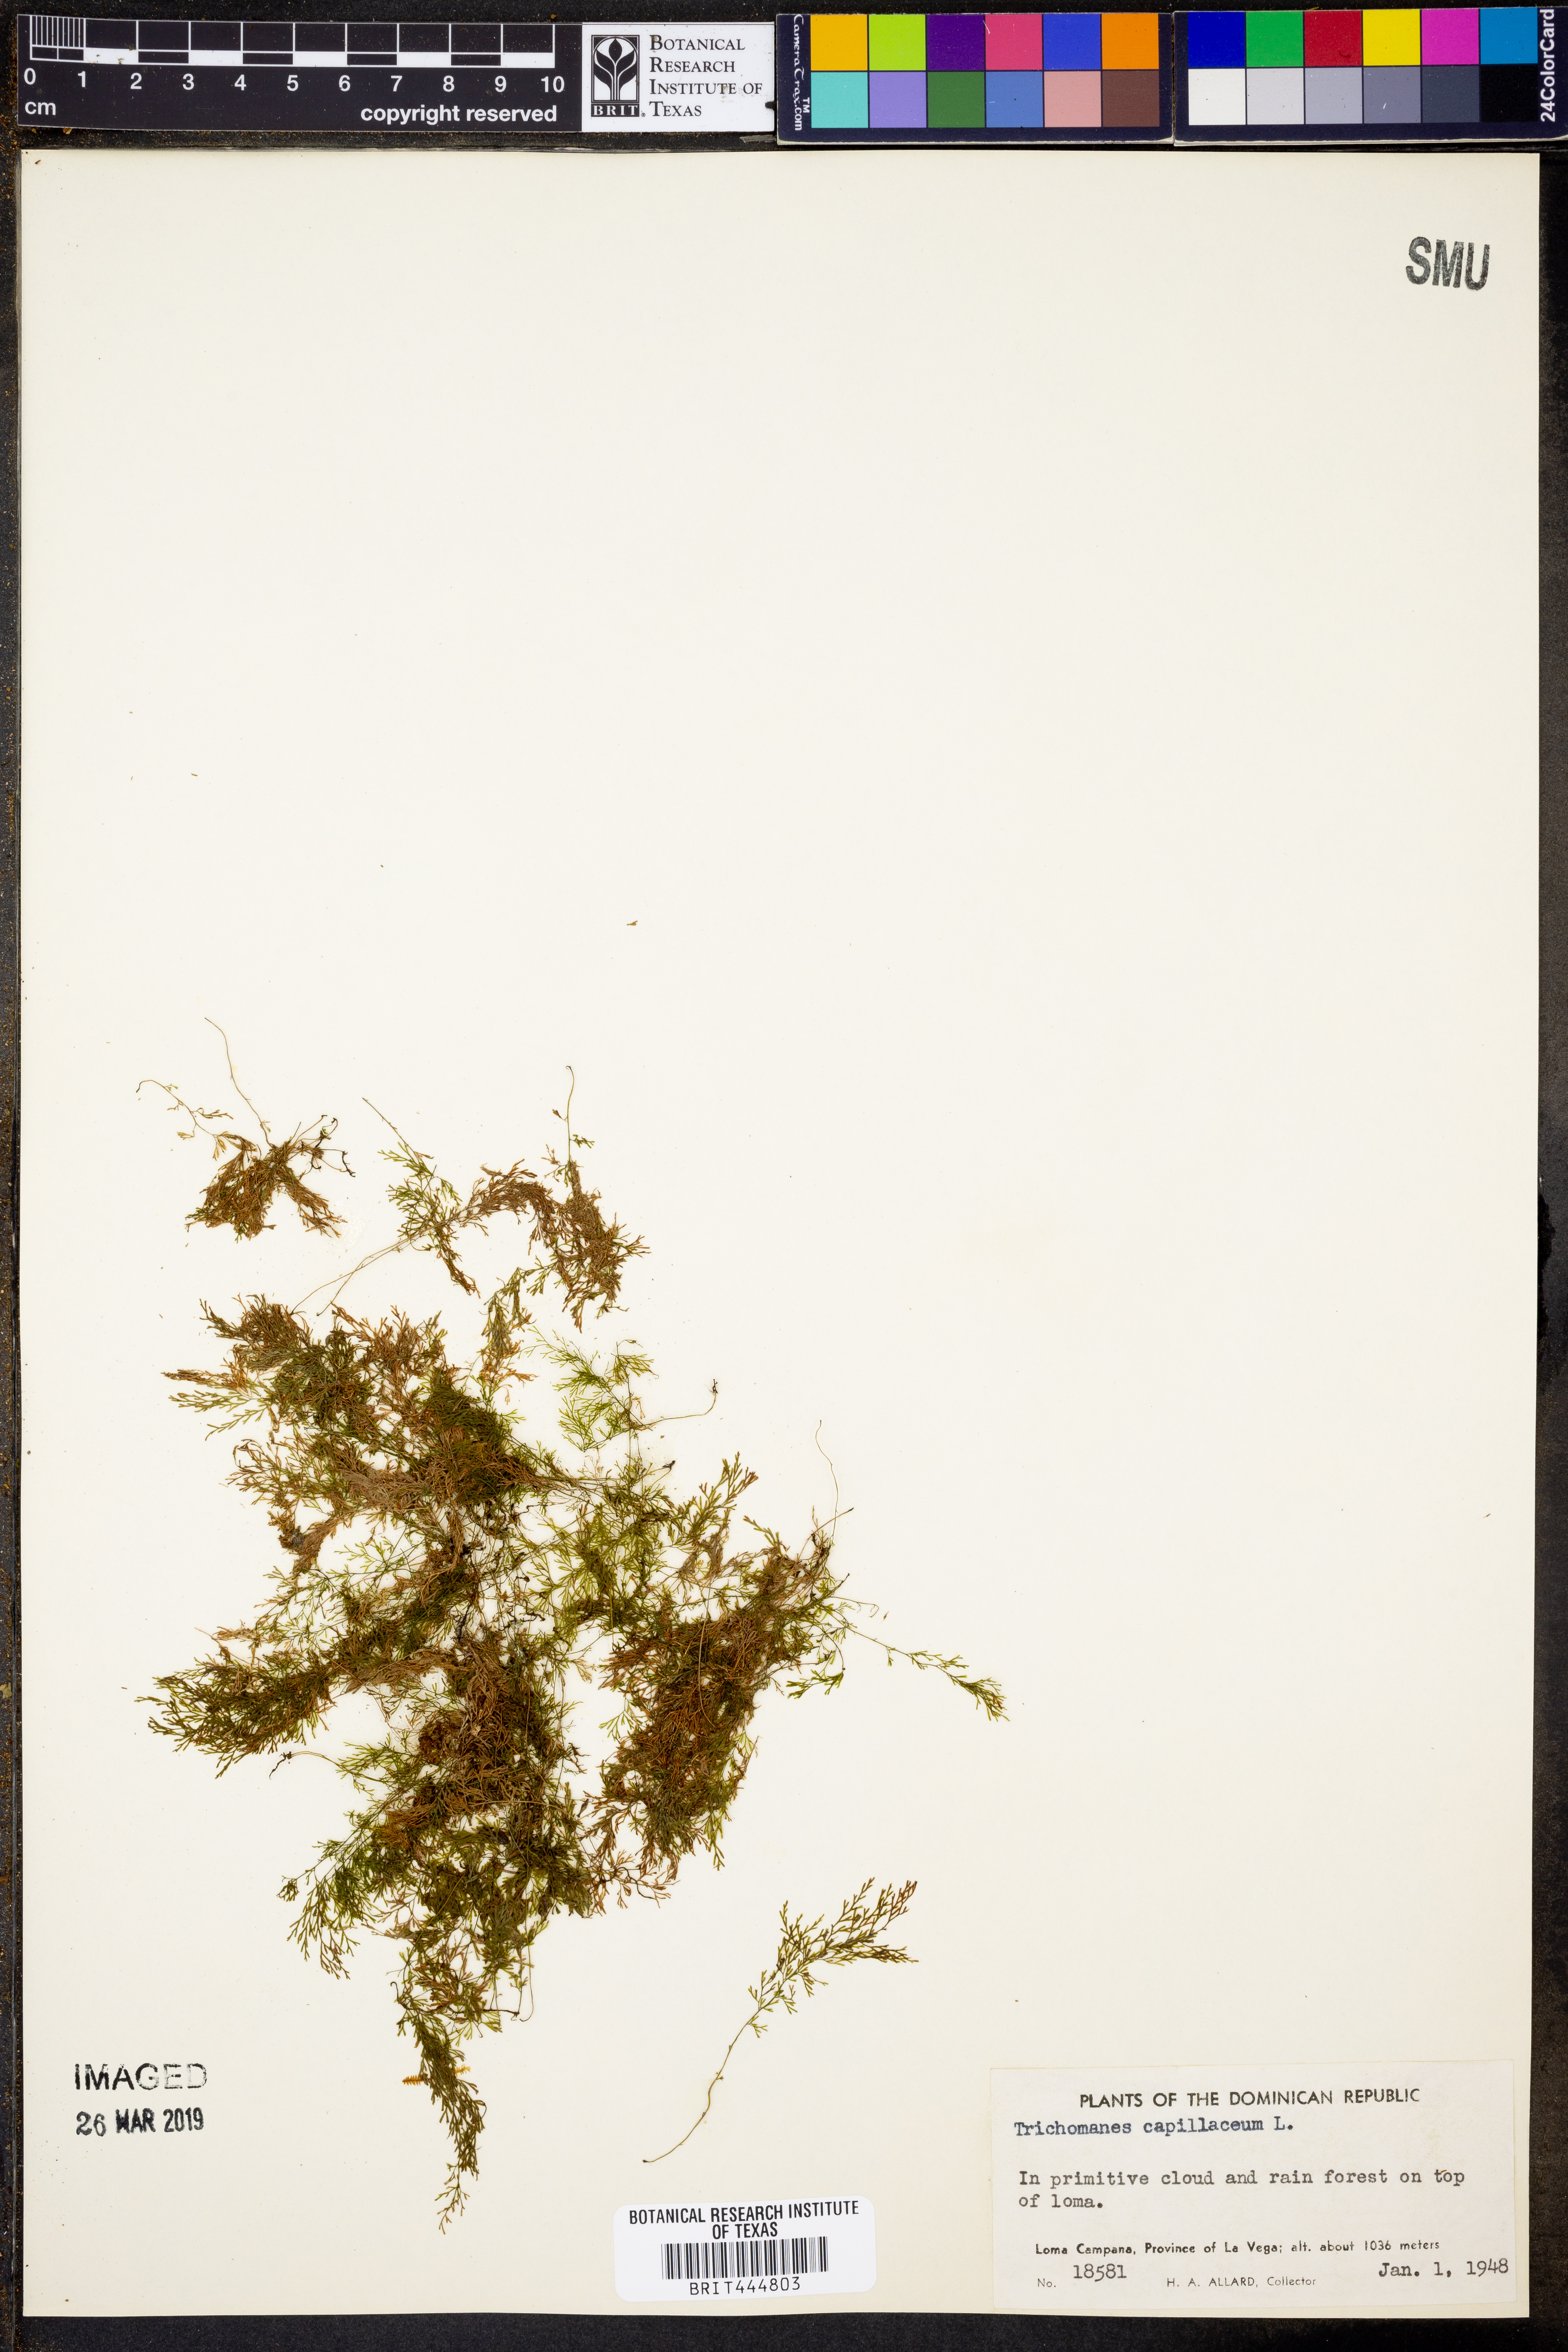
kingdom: Plantae
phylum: Tracheophyta
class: Polypodiopsida
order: Hymenophyllales
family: Hymenophyllaceae
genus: Polyphlebium
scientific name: Polyphlebium capillaceum
